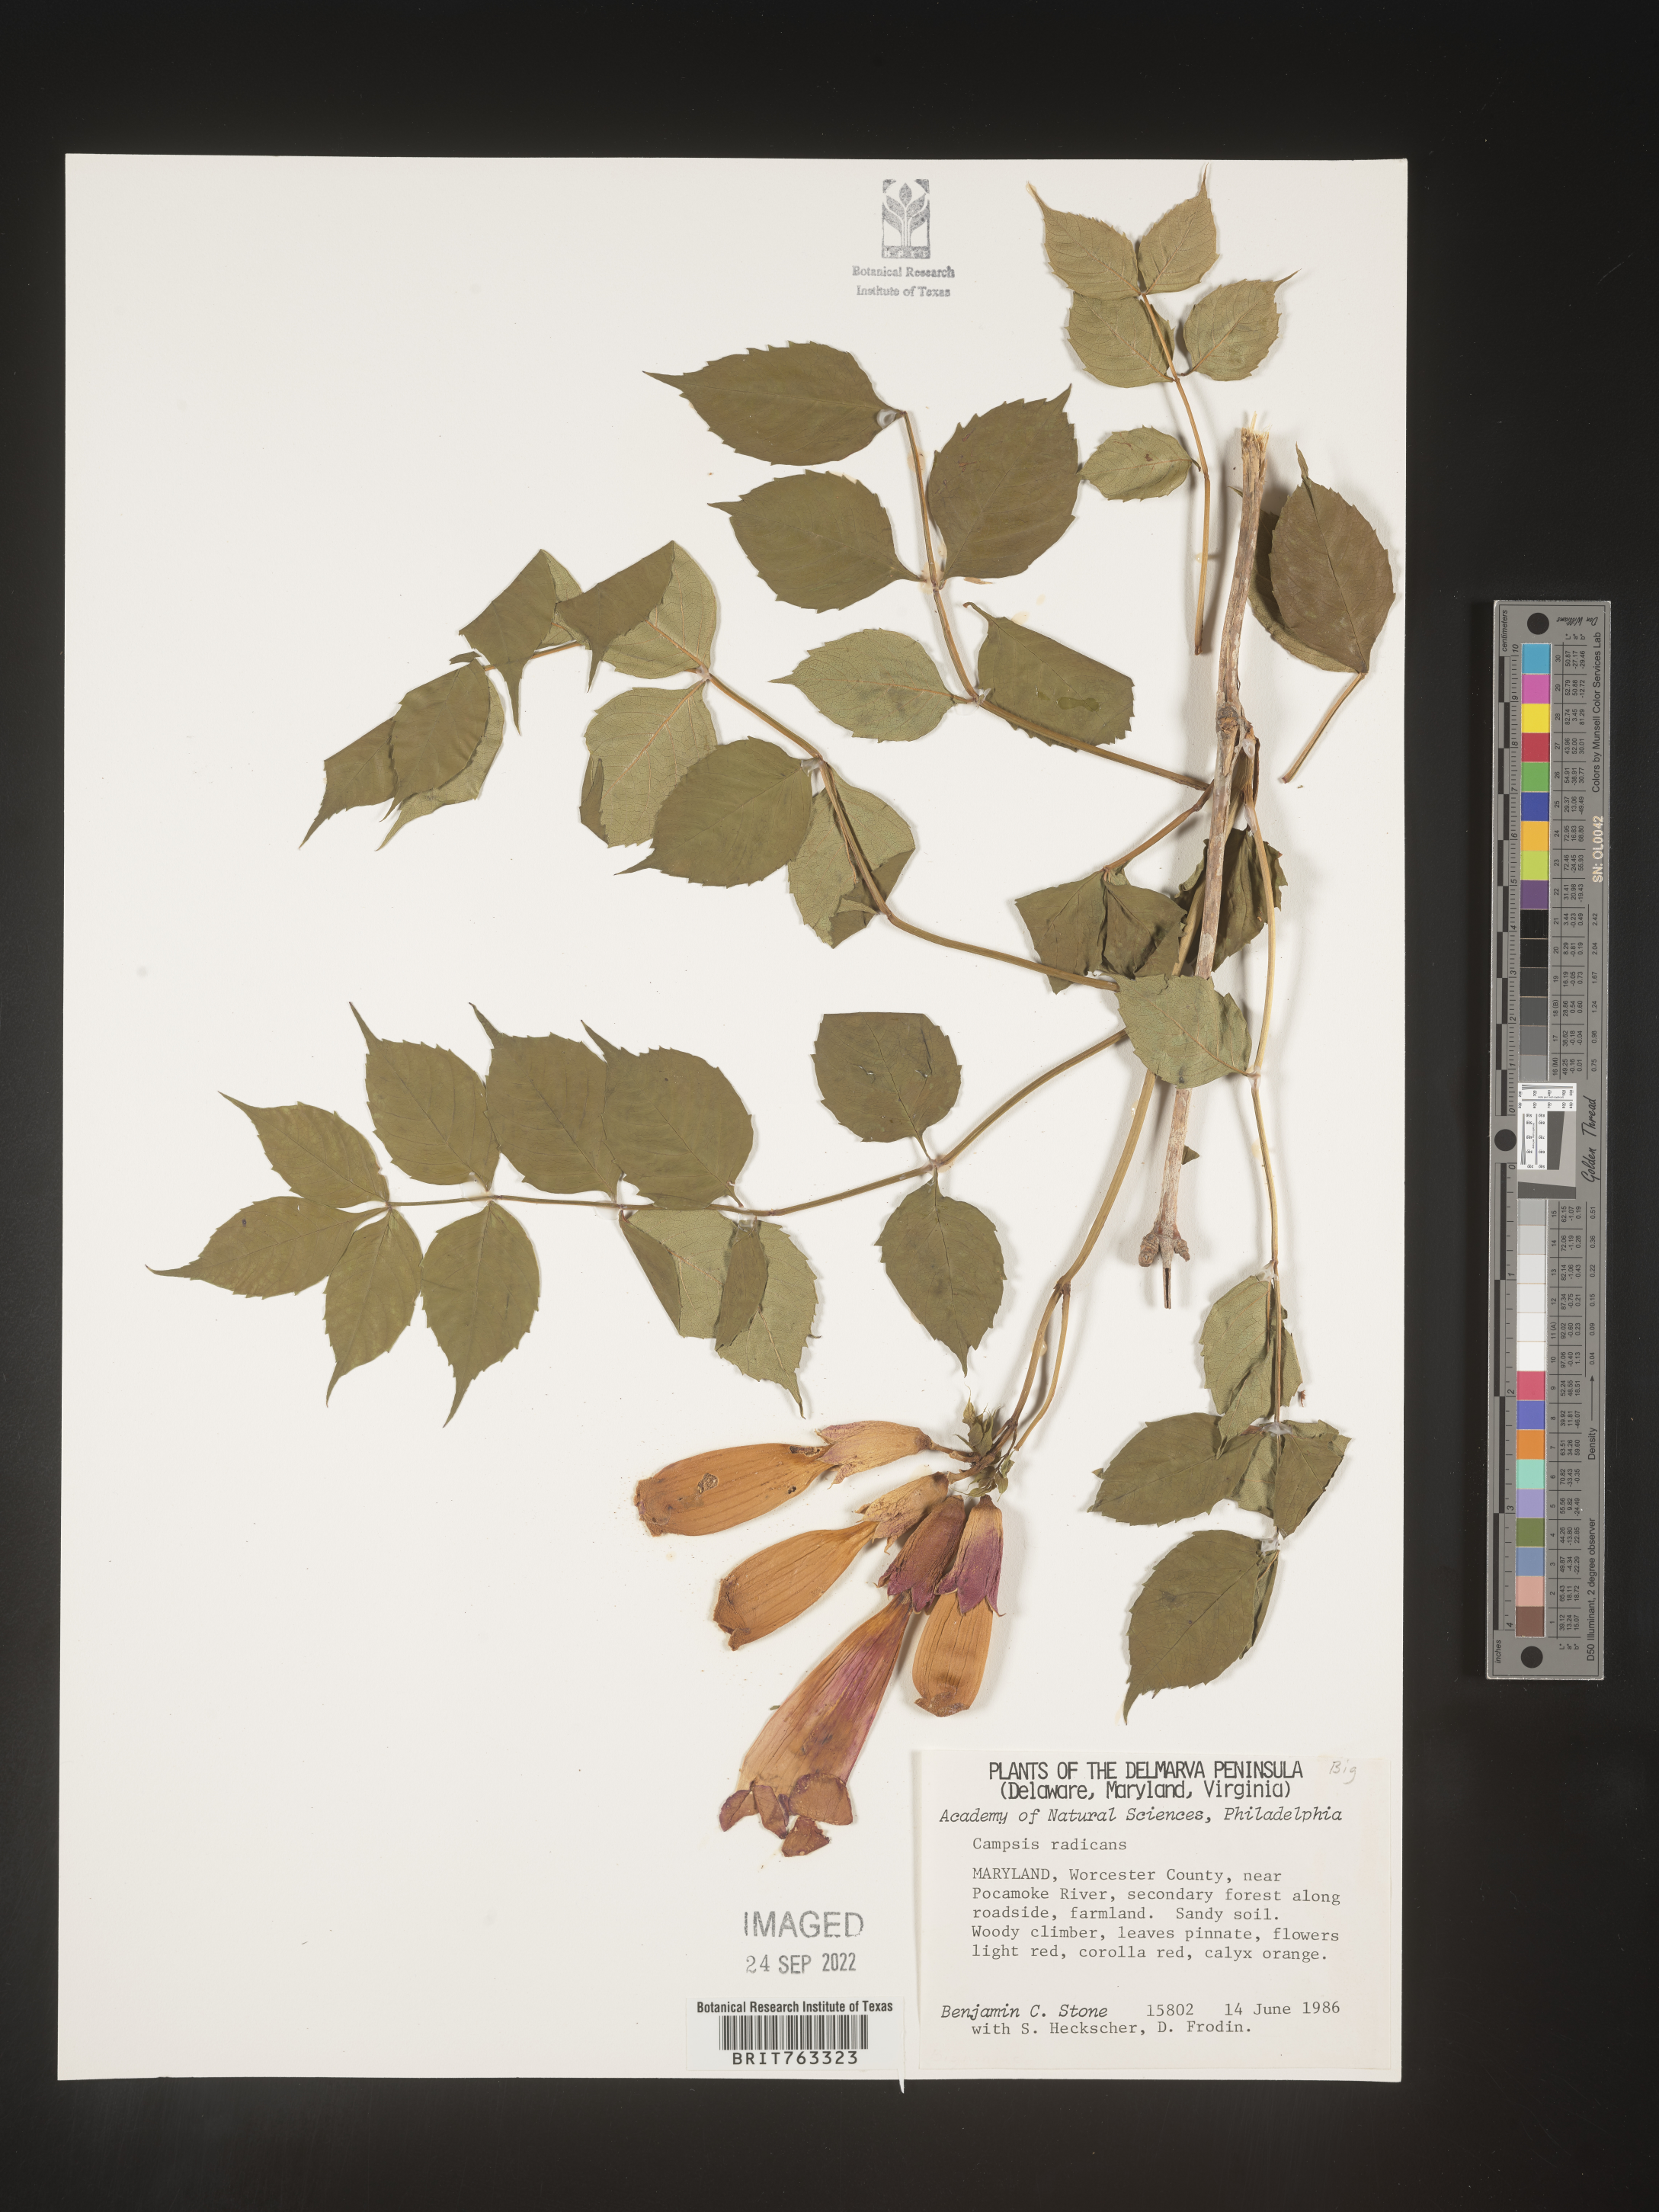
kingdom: Plantae
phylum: Tracheophyta
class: Magnoliopsida
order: Lamiales
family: Bignoniaceae
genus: Campsis
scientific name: Campsis radicans
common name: Trumpet-creeper
